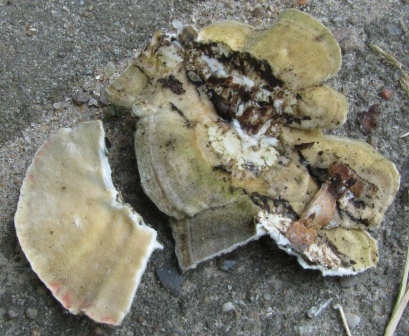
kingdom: Fungi
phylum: Basidiomycota
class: Agaricomycetes
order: Polyporales
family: Polyporaceae
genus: Trametes
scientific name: Trametes hirsuta
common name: håret læderporesvamp
